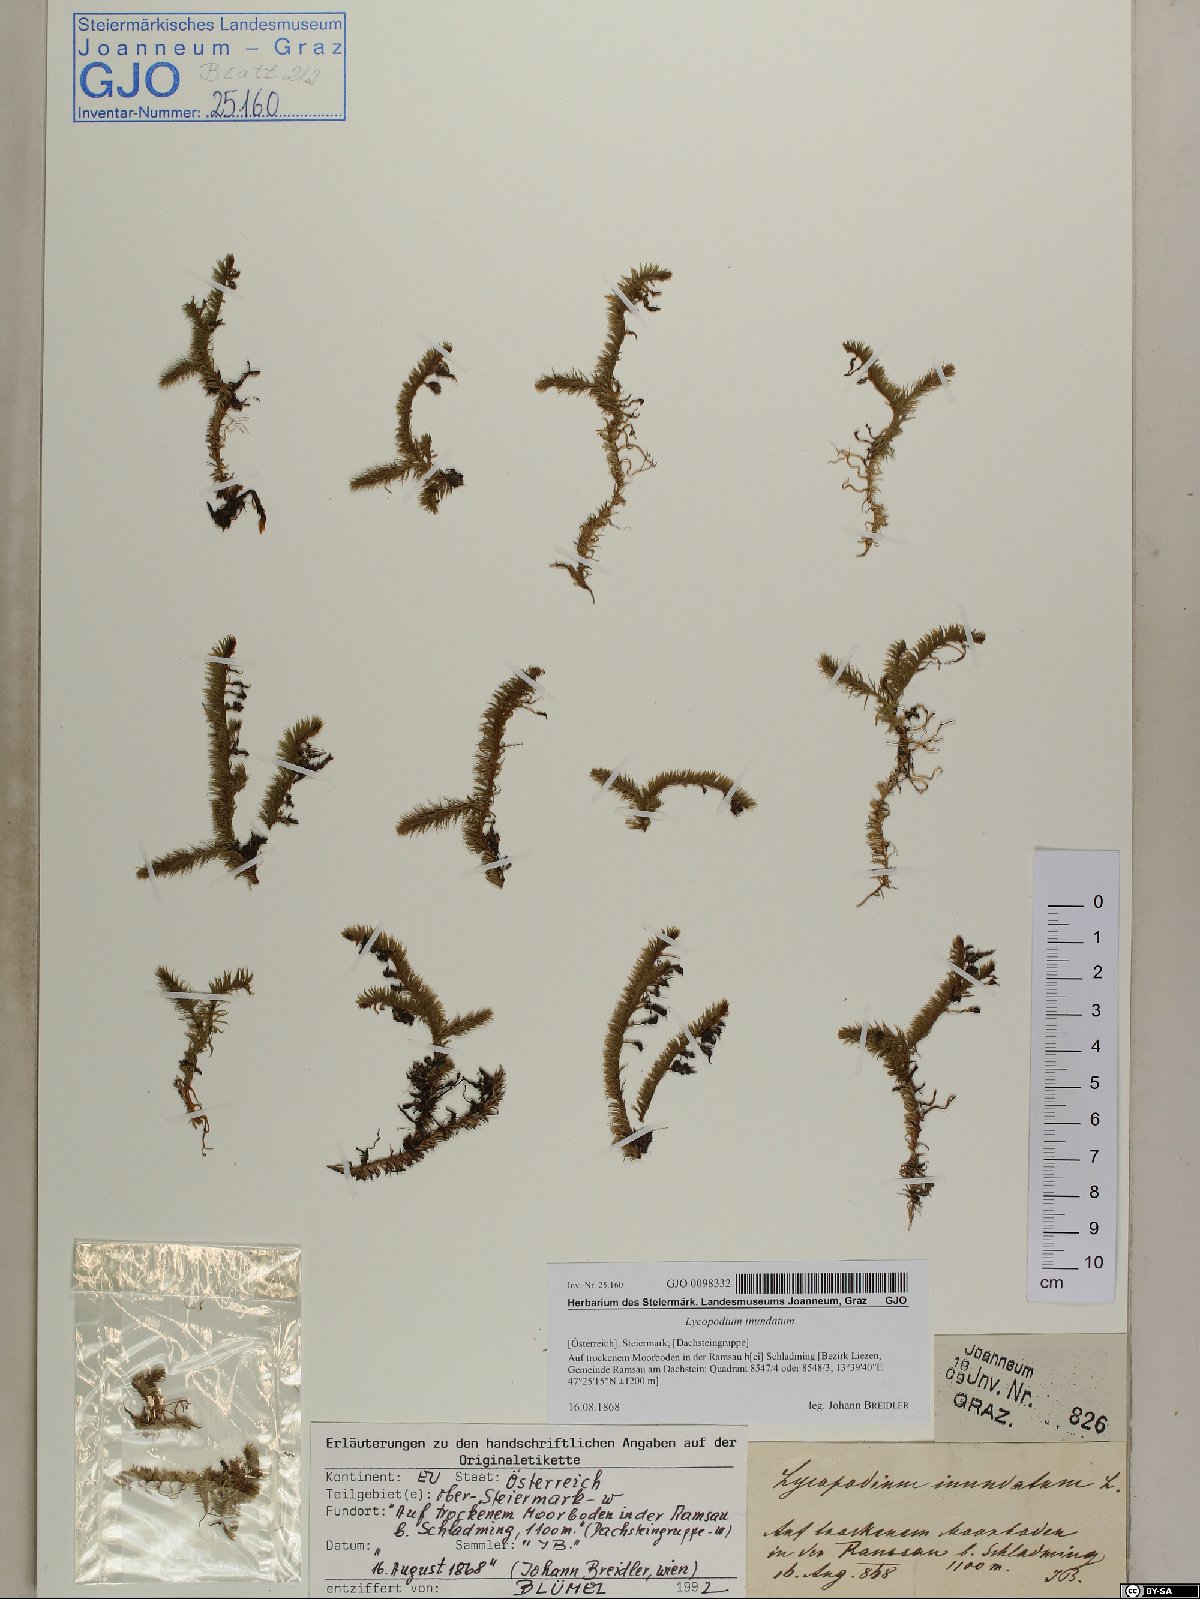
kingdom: Plantae
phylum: Tracheophyta
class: Lycopodiopsida
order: Lycopodiales
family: Lycopodiaceae
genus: Lycopodiella
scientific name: Lycopodiella inundata
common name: Marsh clubmoss
